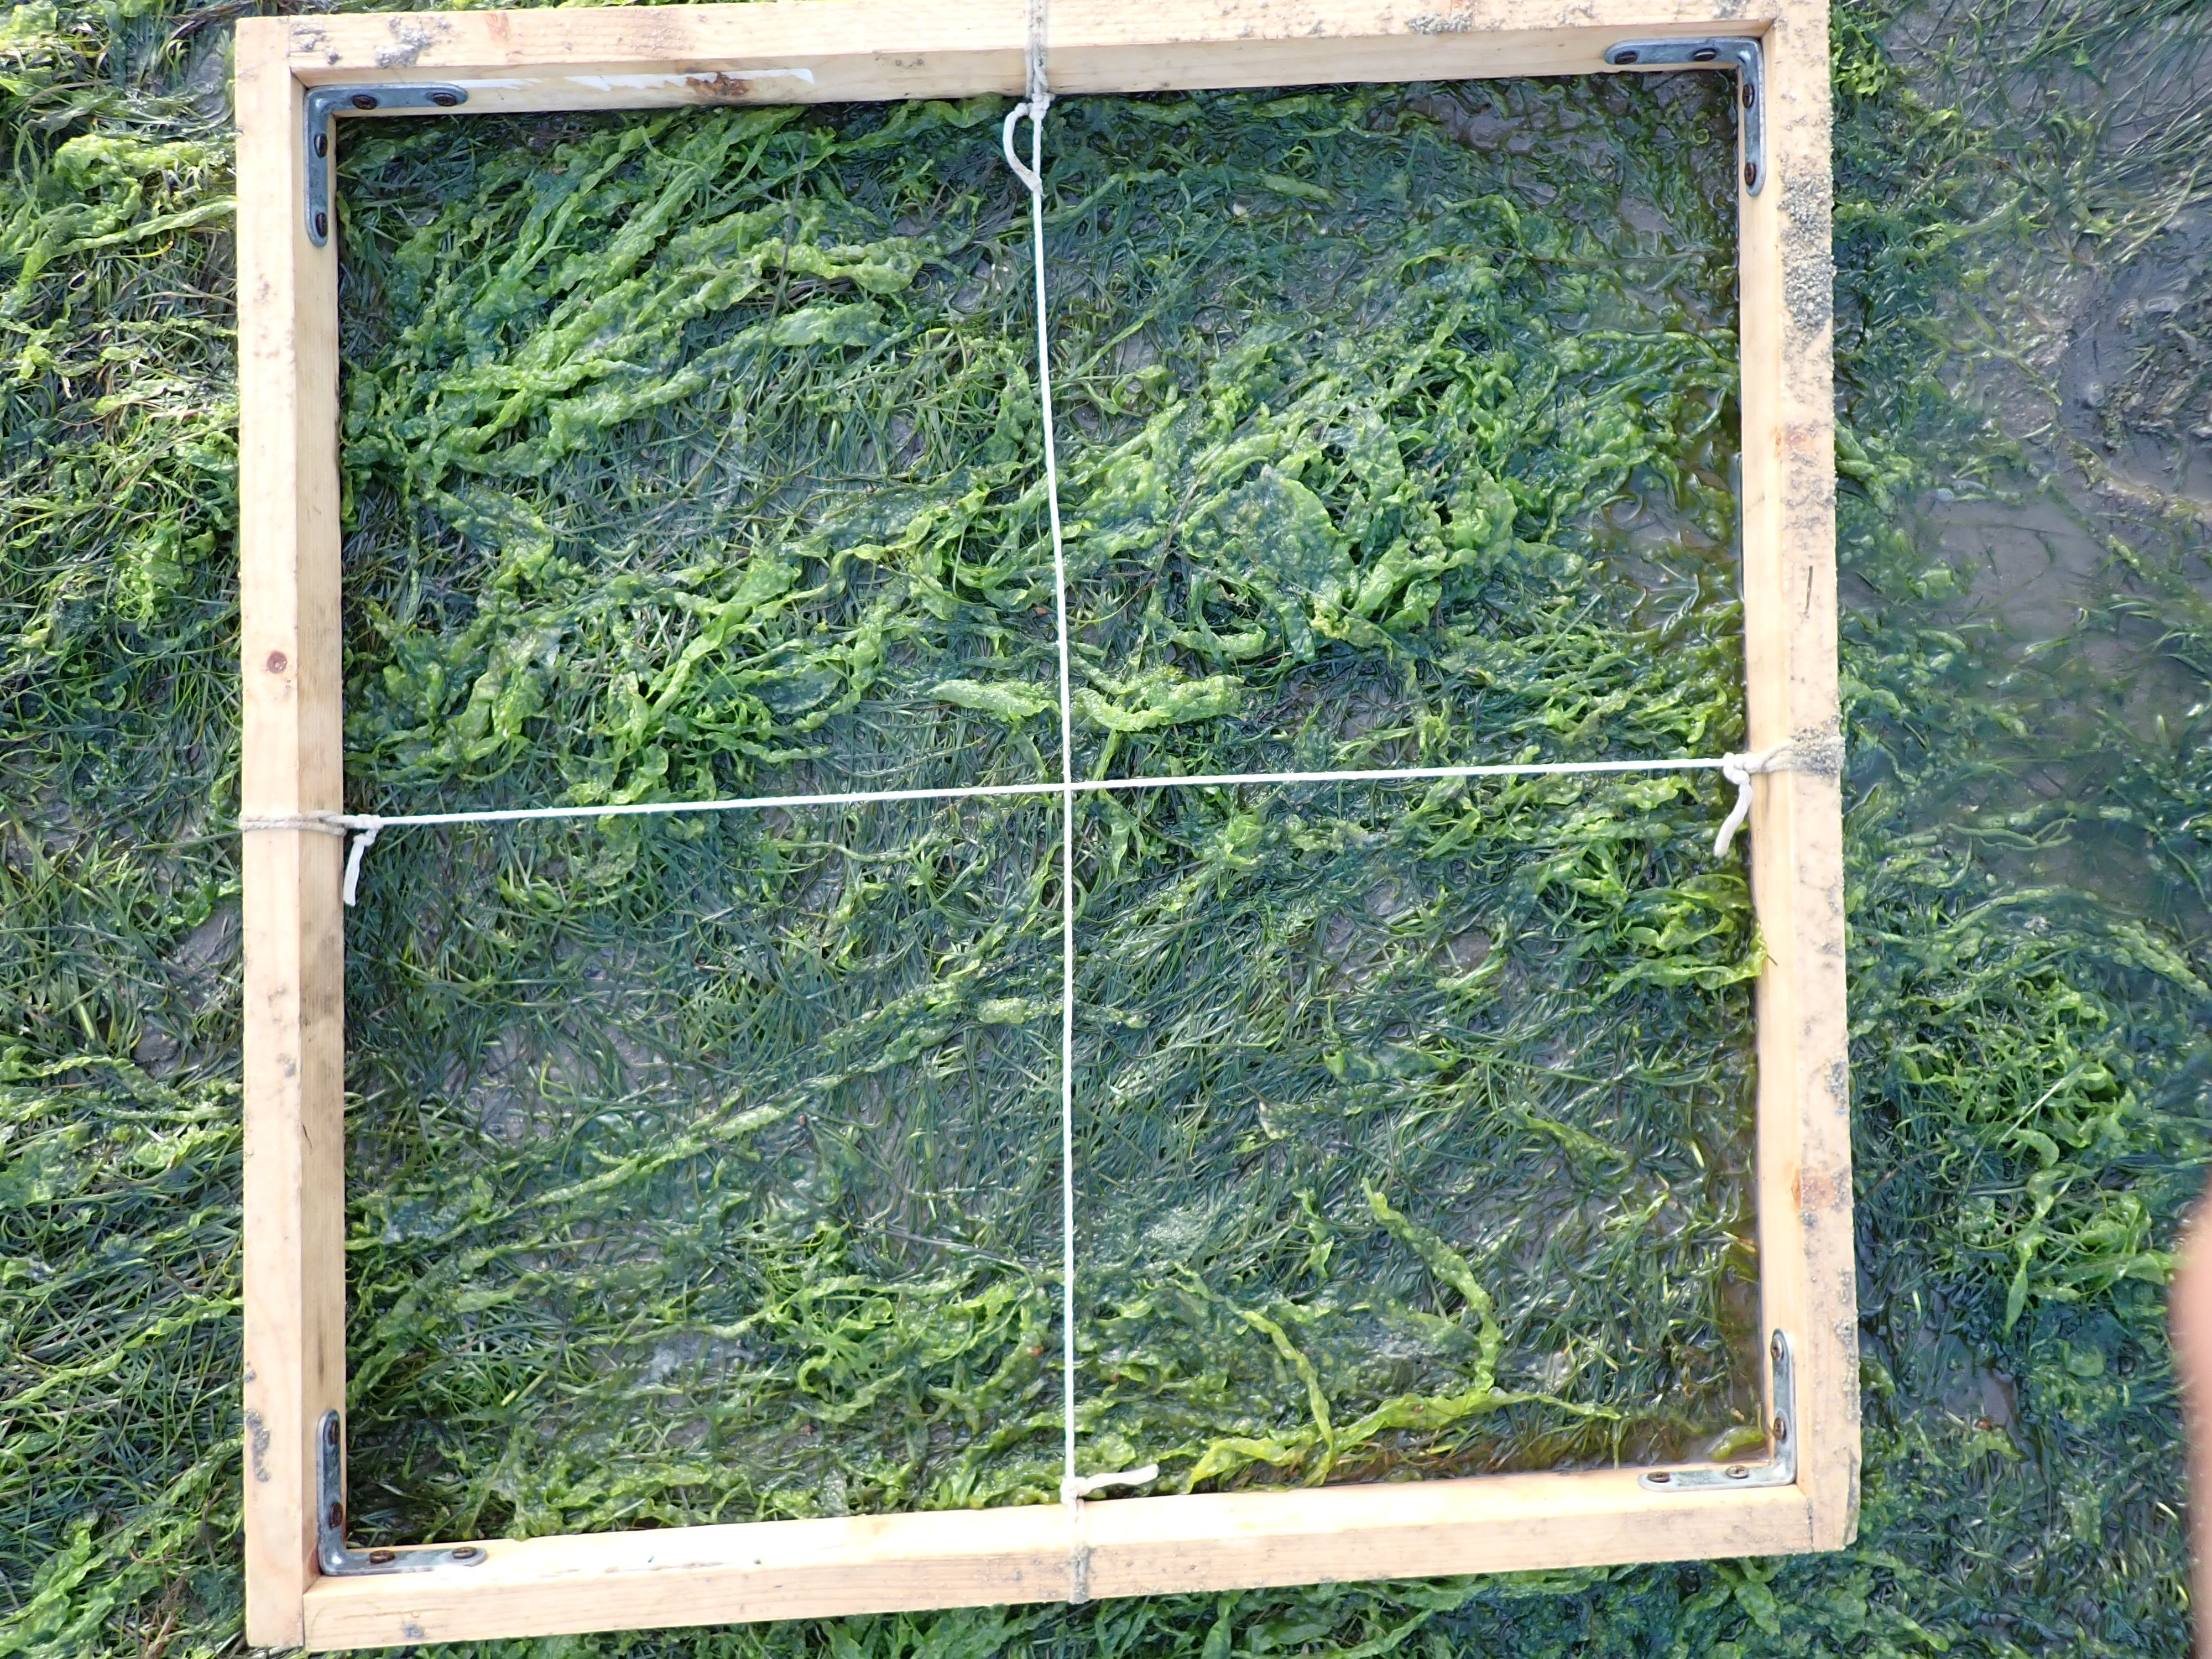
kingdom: Plantae
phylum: Chlorophyta
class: Ulvophyceae
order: Ulvales
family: Ulvaceae
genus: Ulva
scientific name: Ulva
